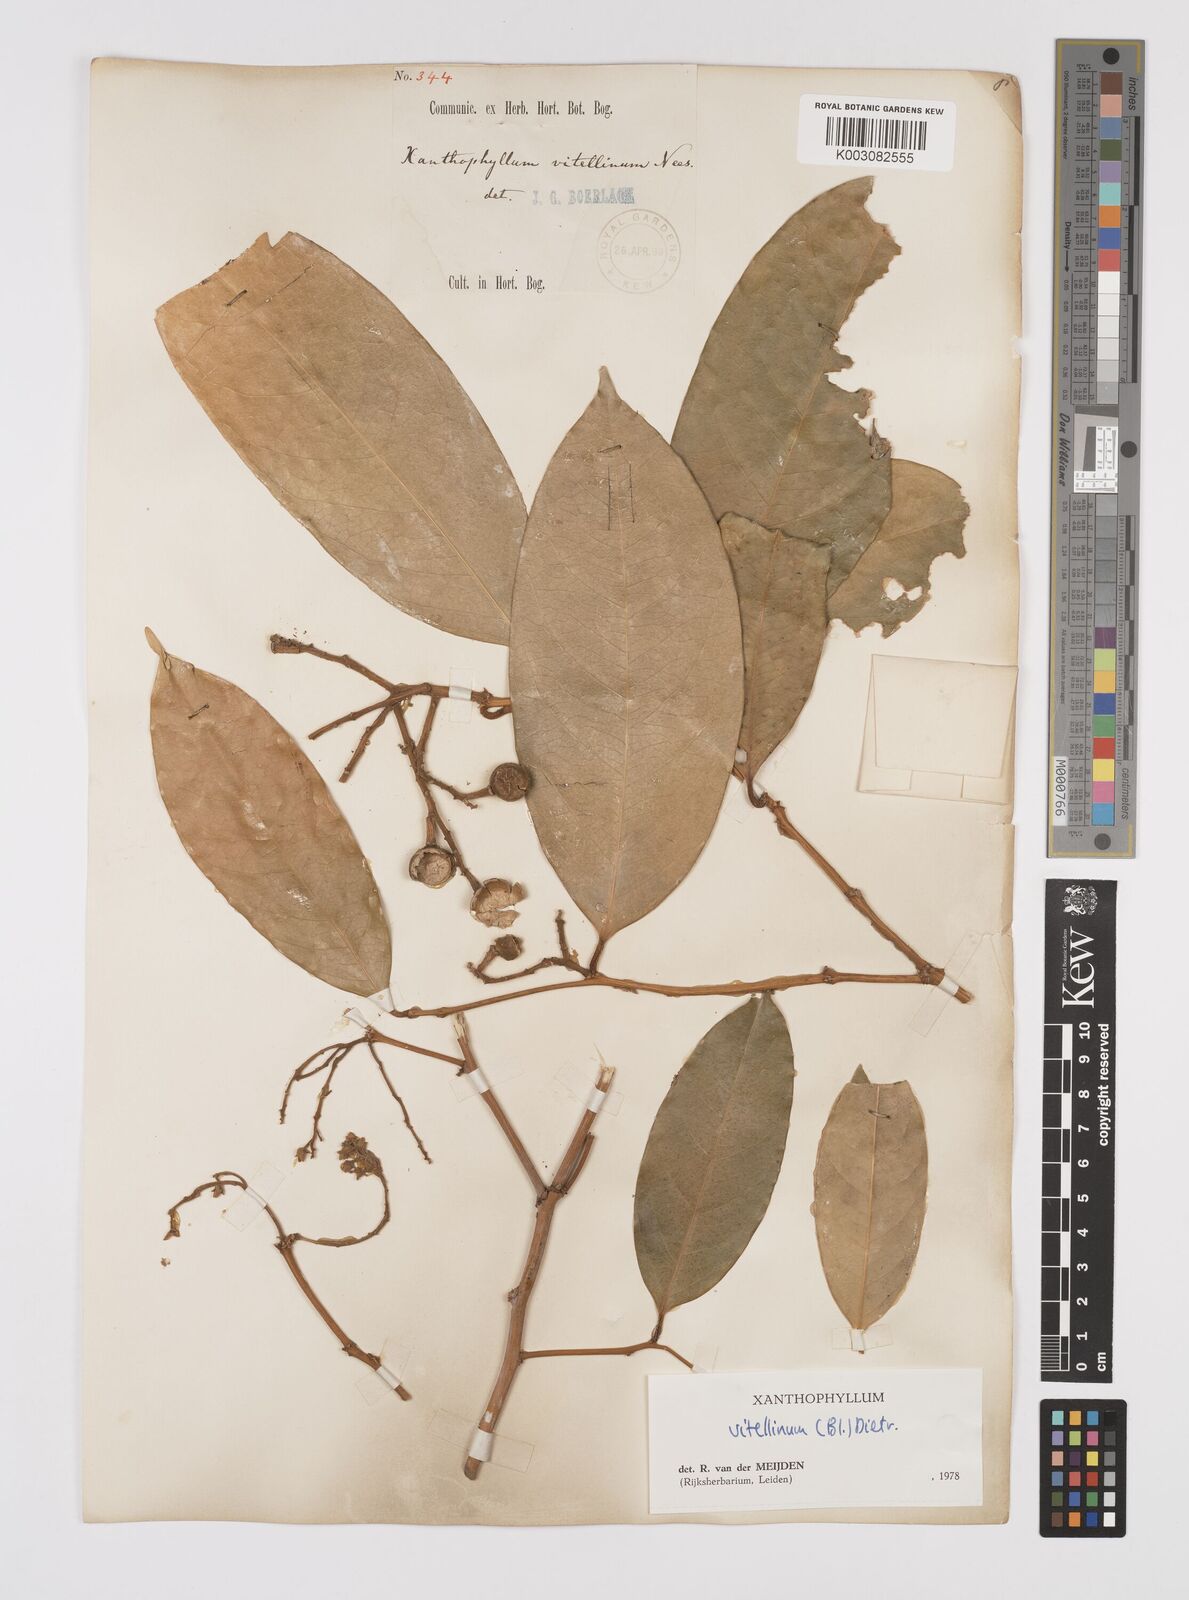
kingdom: Plantae
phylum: Tracheophyta
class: Magnoliopsida
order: Fabales
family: Polygalaceae
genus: Xanthophyllum
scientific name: Xanthophyllum vitellinum
